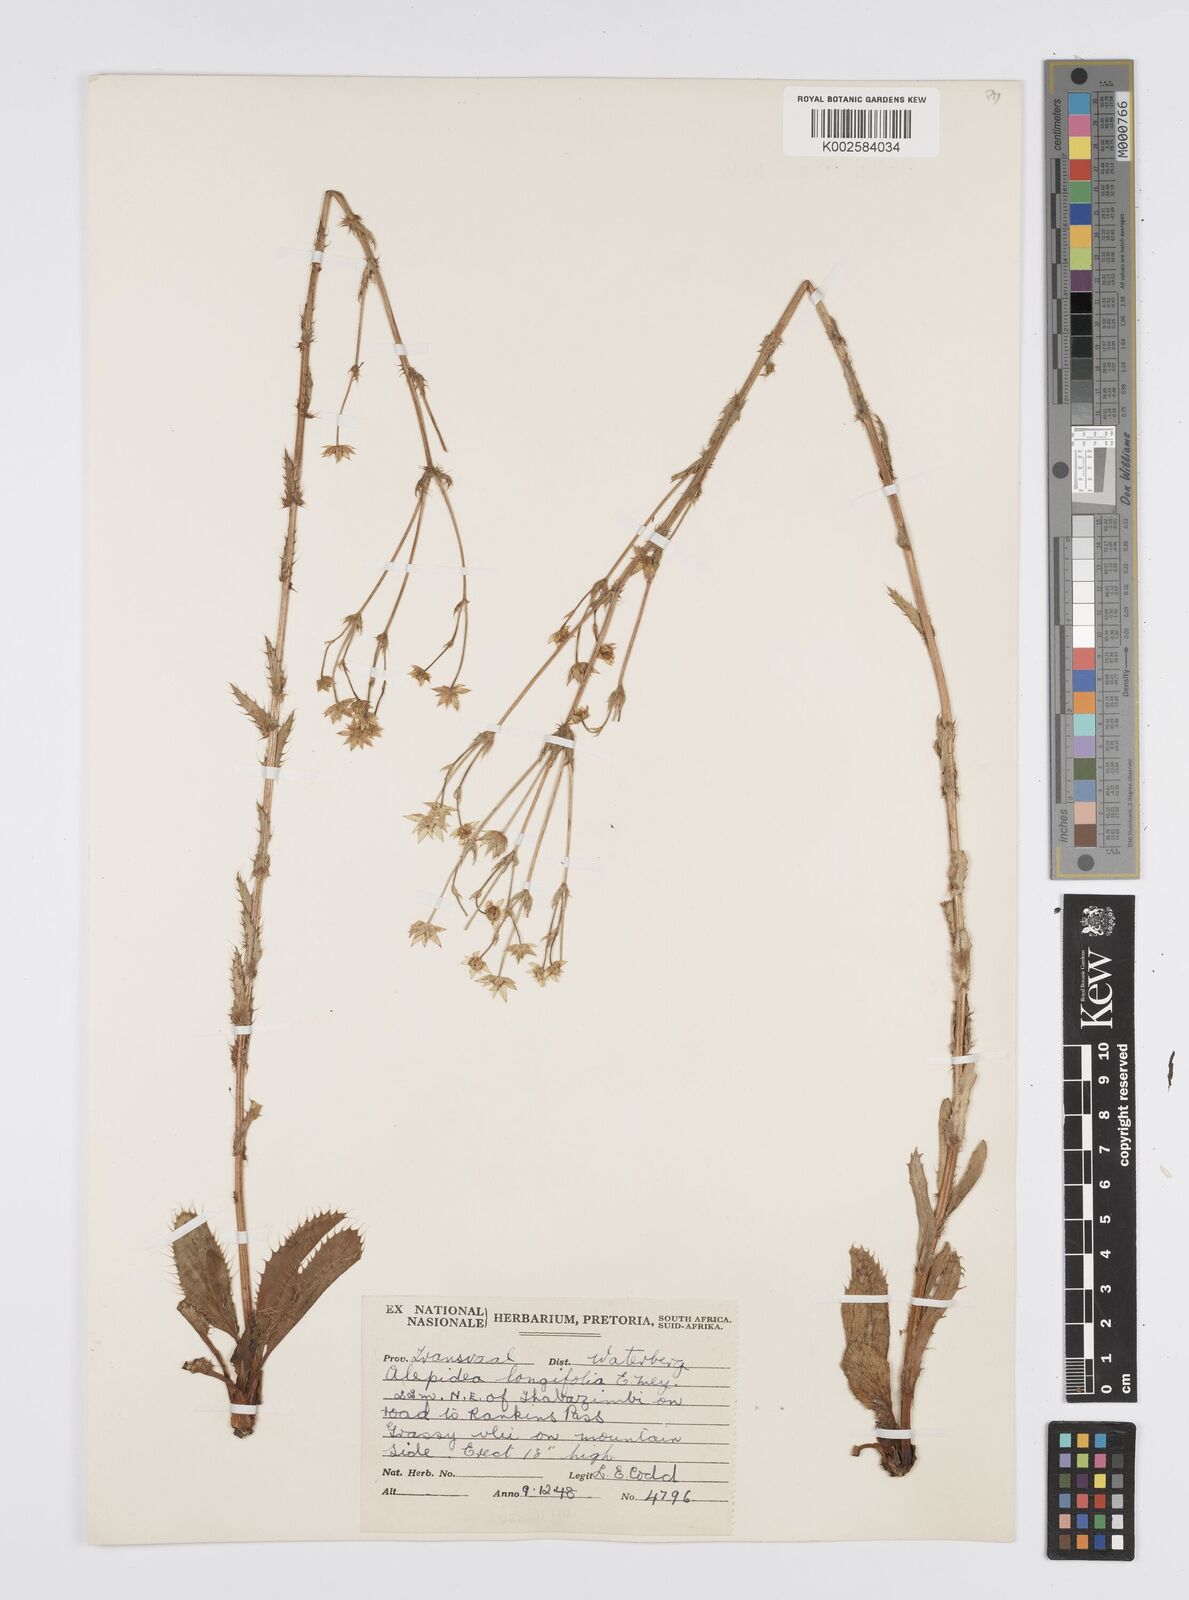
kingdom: Plantae
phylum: Tracheophyta
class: Magnoliopsida
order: Apiales
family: Apiaceae
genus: Alepidea
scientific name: Alepidea
